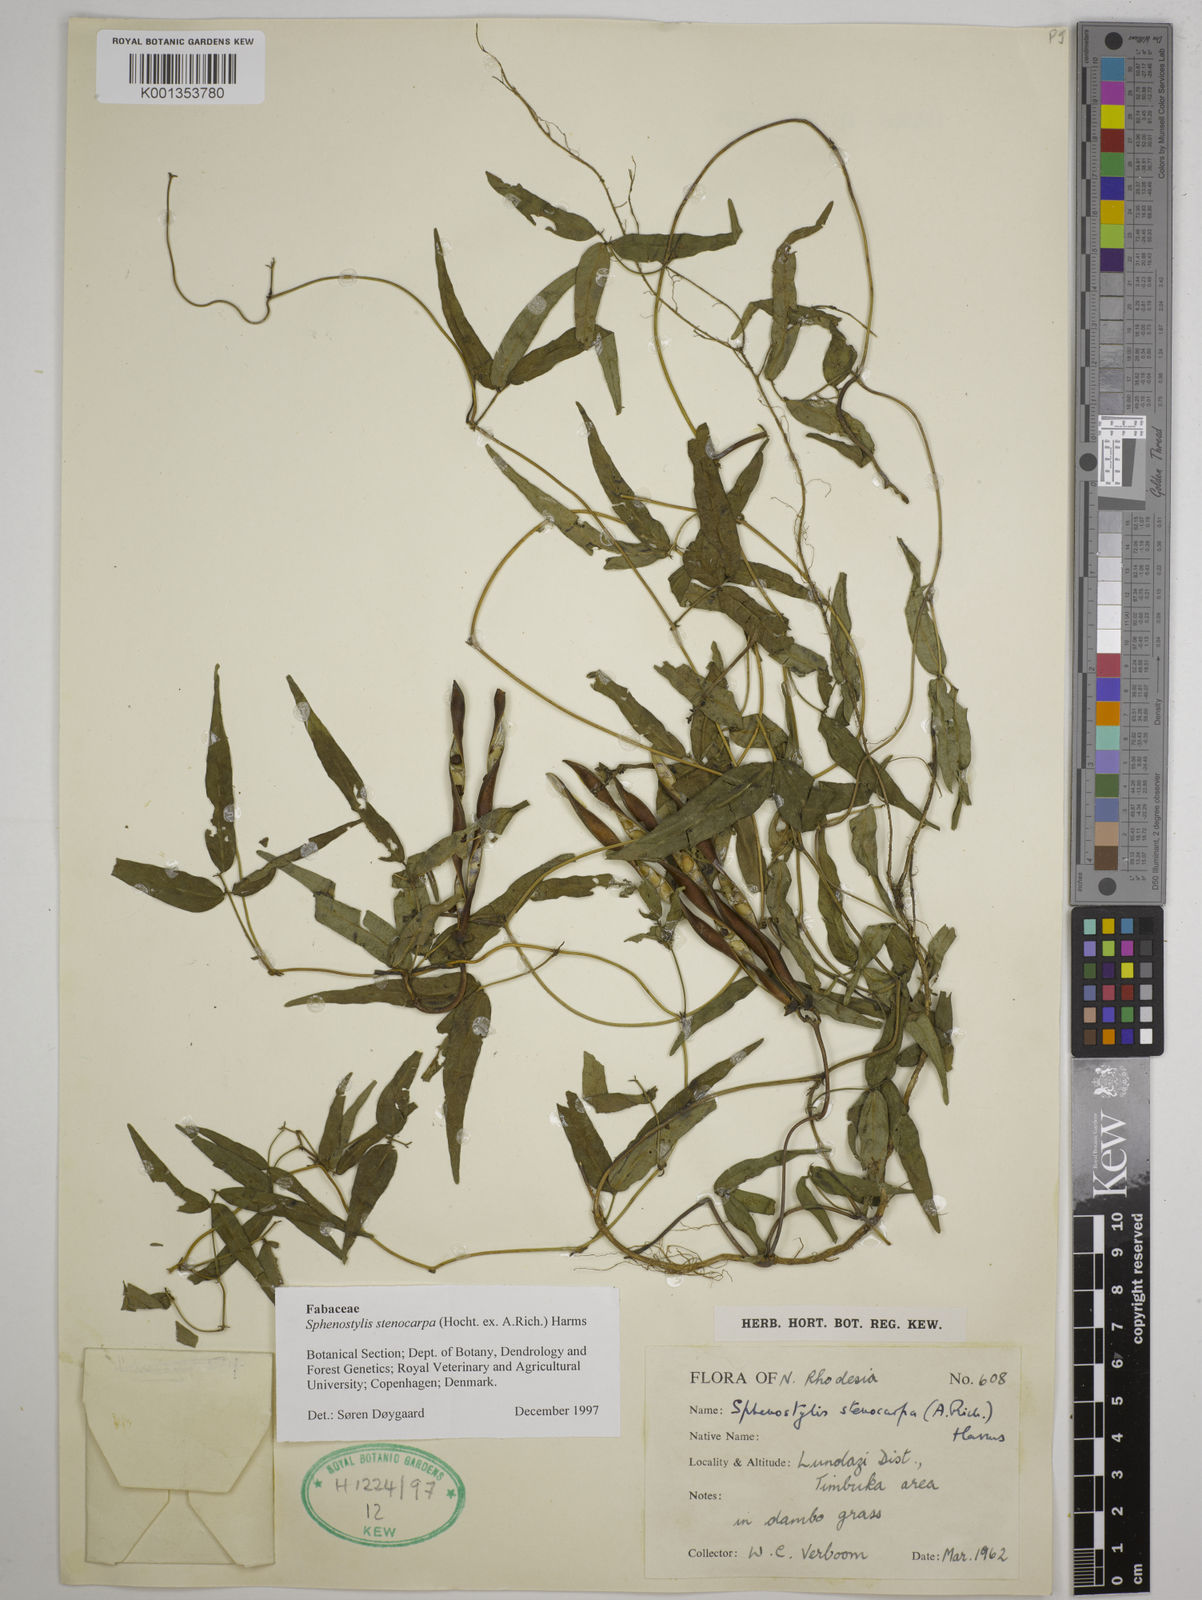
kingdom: Plantae
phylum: Tracheophyta
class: Magnoliopsida
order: Fabales
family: Fabaceae
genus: Sphenostylis
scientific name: Sphenostylis stenocarpa
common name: Yam-pea
